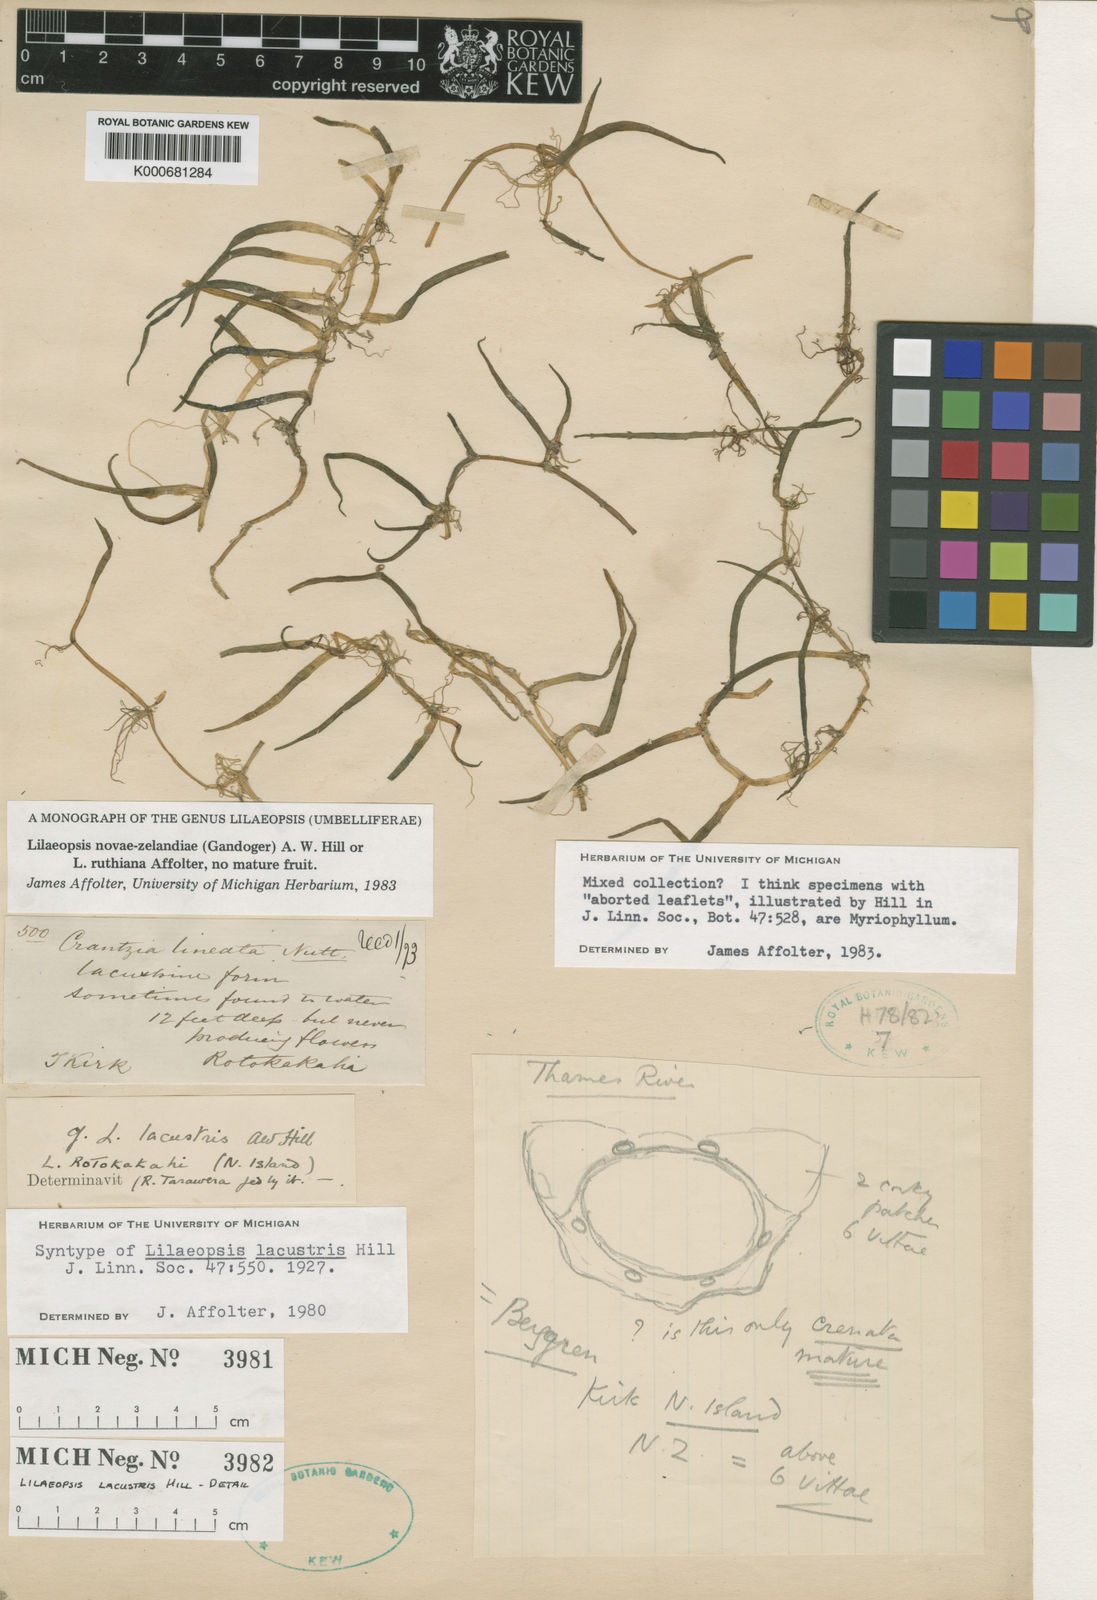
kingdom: Plantae
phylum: Tracheophyta
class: Magnoliopsida
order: Apiales
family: Apiaceae
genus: Lilaeopsis
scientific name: Lilaeopsis novae-zelandiae
